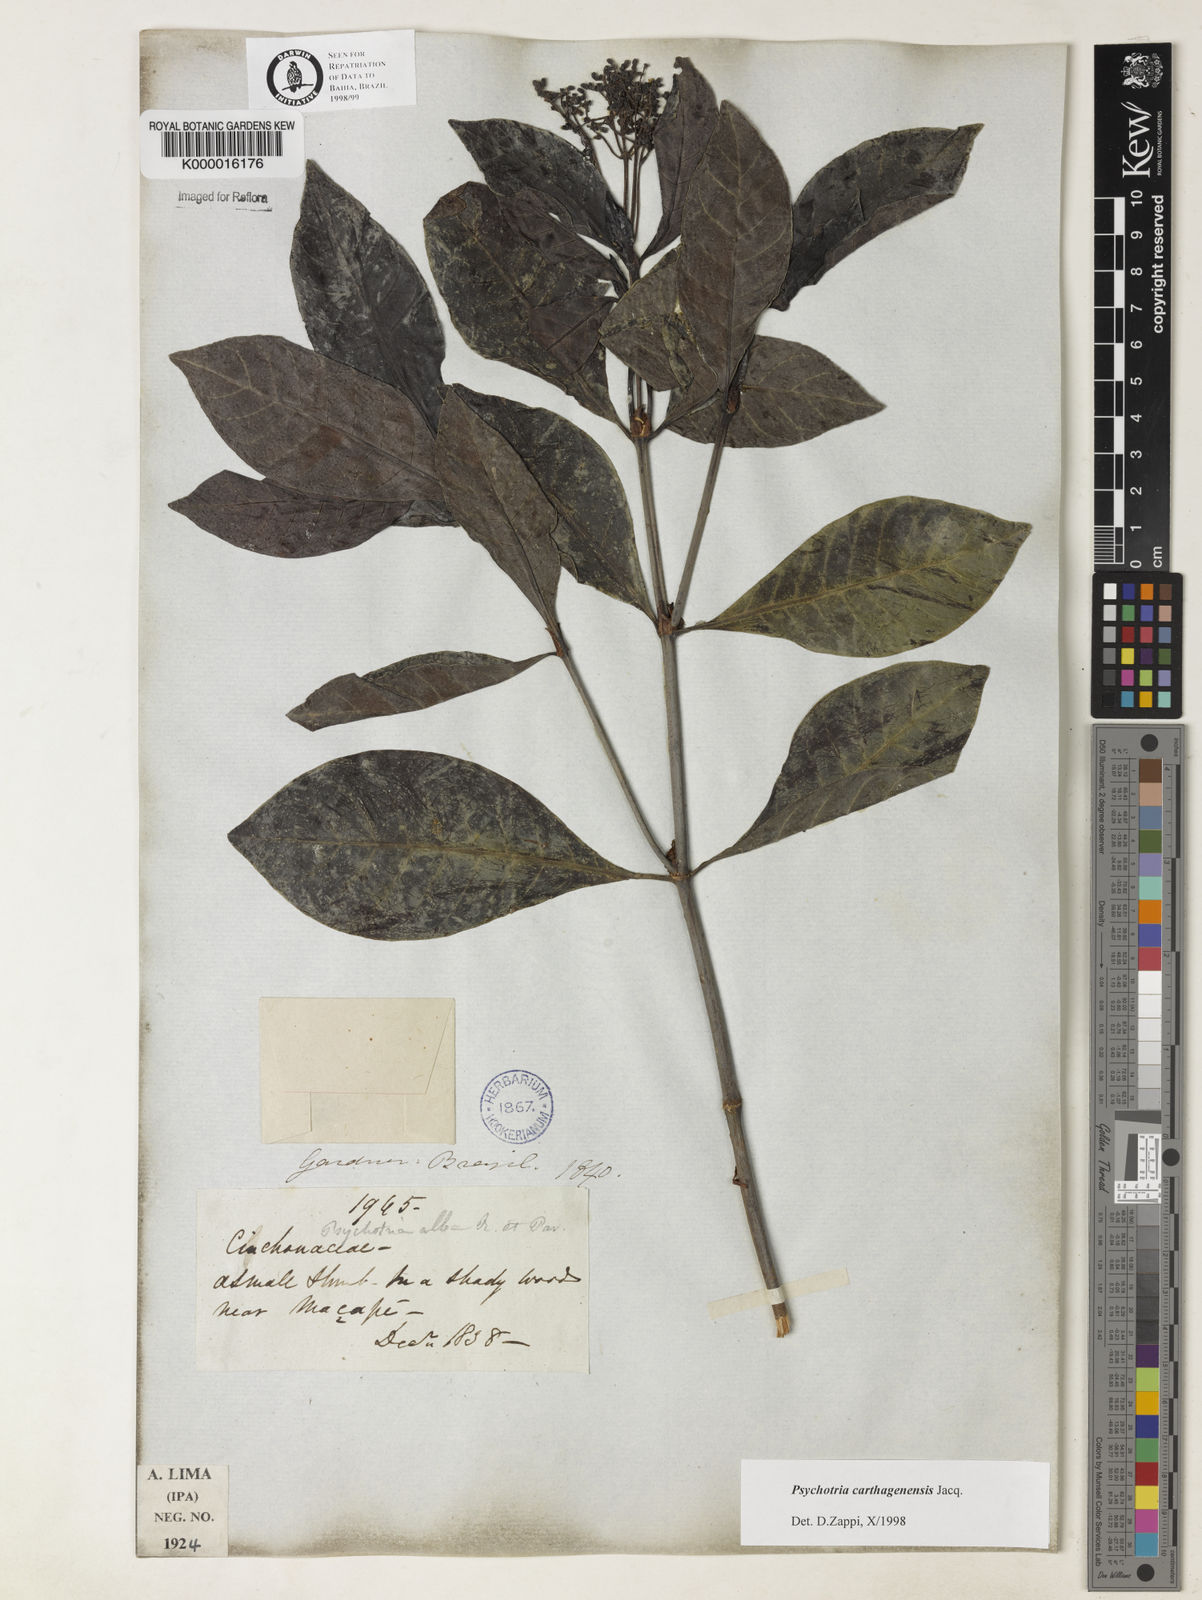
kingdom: Plantae
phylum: Tracheophyta
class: Magnoliopsida
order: Gentianales
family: Rubiaceae
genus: Psychotria
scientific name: Psychotria carthagenensis
